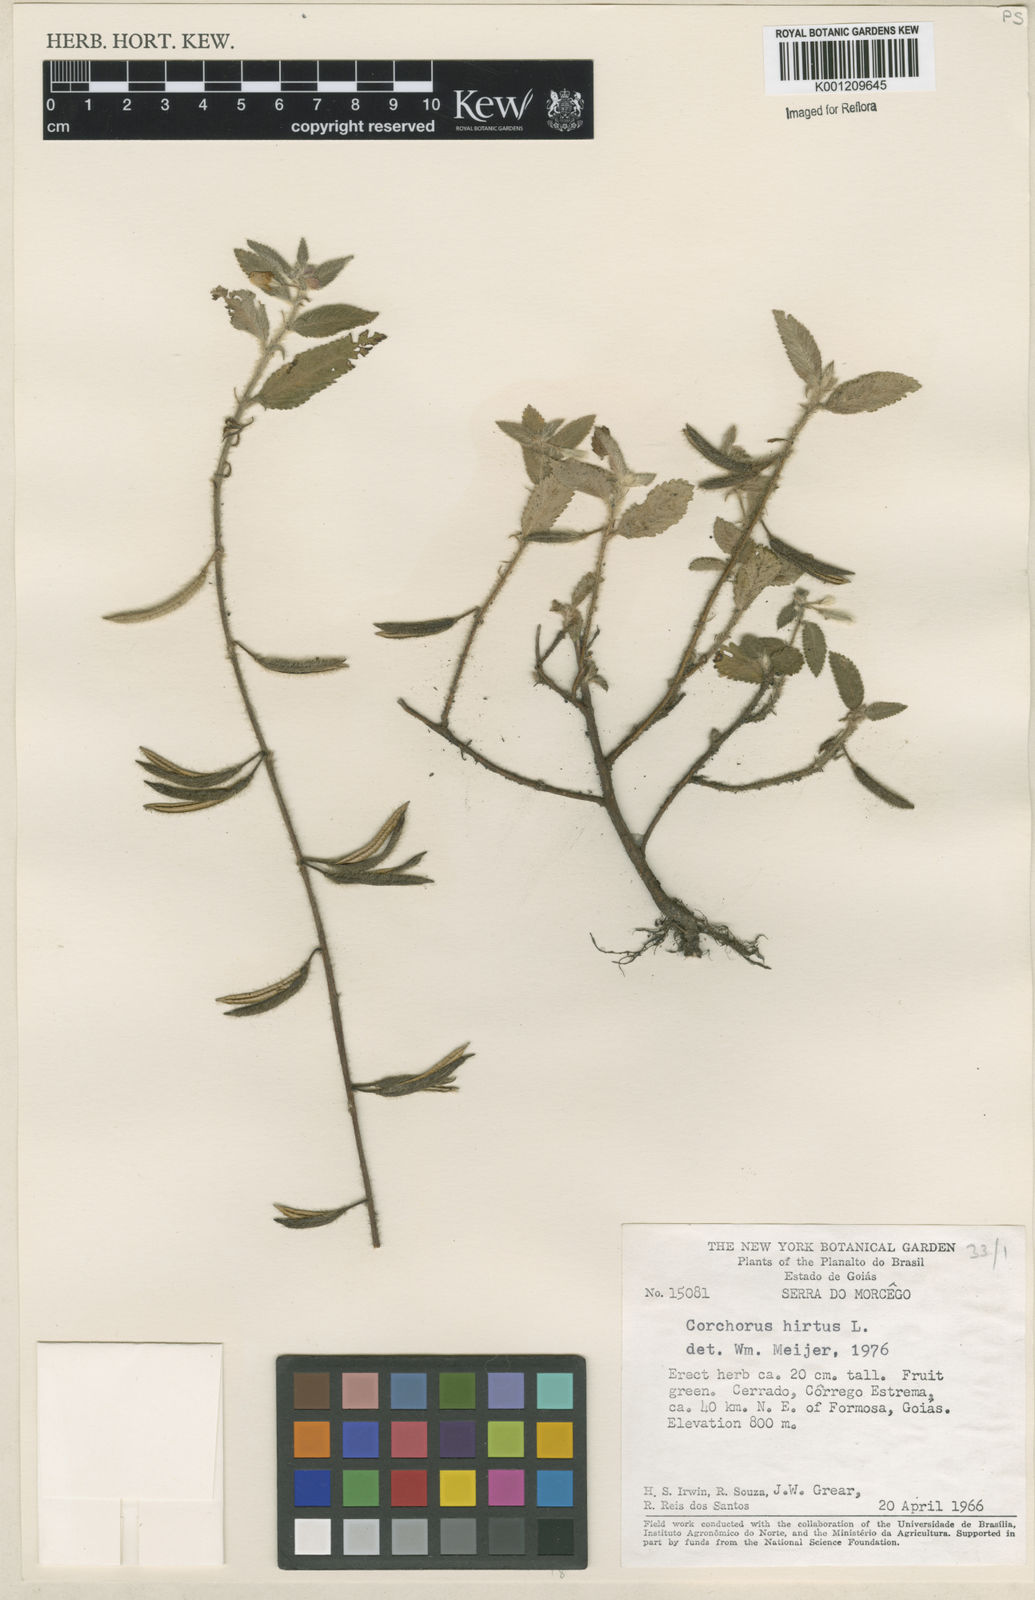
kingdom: Plantae
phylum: Tracheophyta
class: Magnoliopsida
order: Malvales
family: Malvaceae
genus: Corchorus
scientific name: Corchorus hirtus
